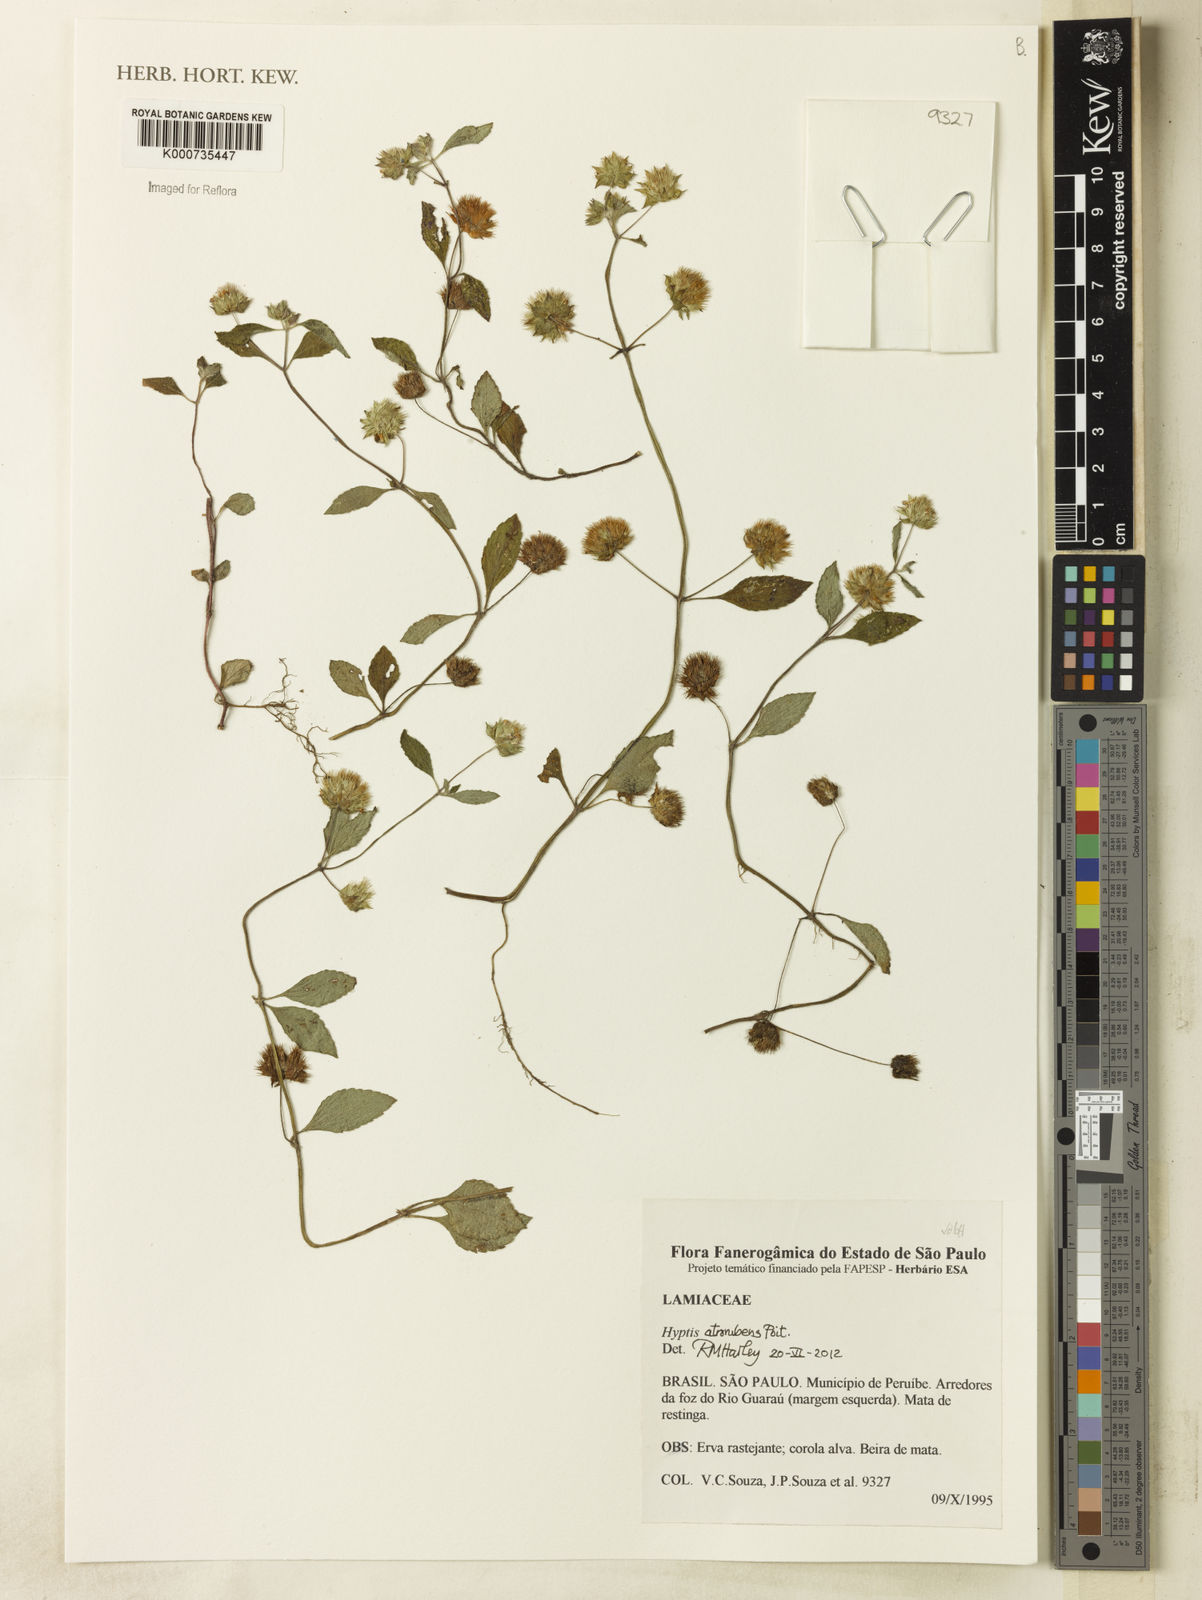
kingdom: Plantae
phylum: Tracheophyta
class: Magnoliopsida
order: Lamiales
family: Lamiaceae
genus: Hyptis
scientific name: Hyptis atrorubens
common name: Lanmant
